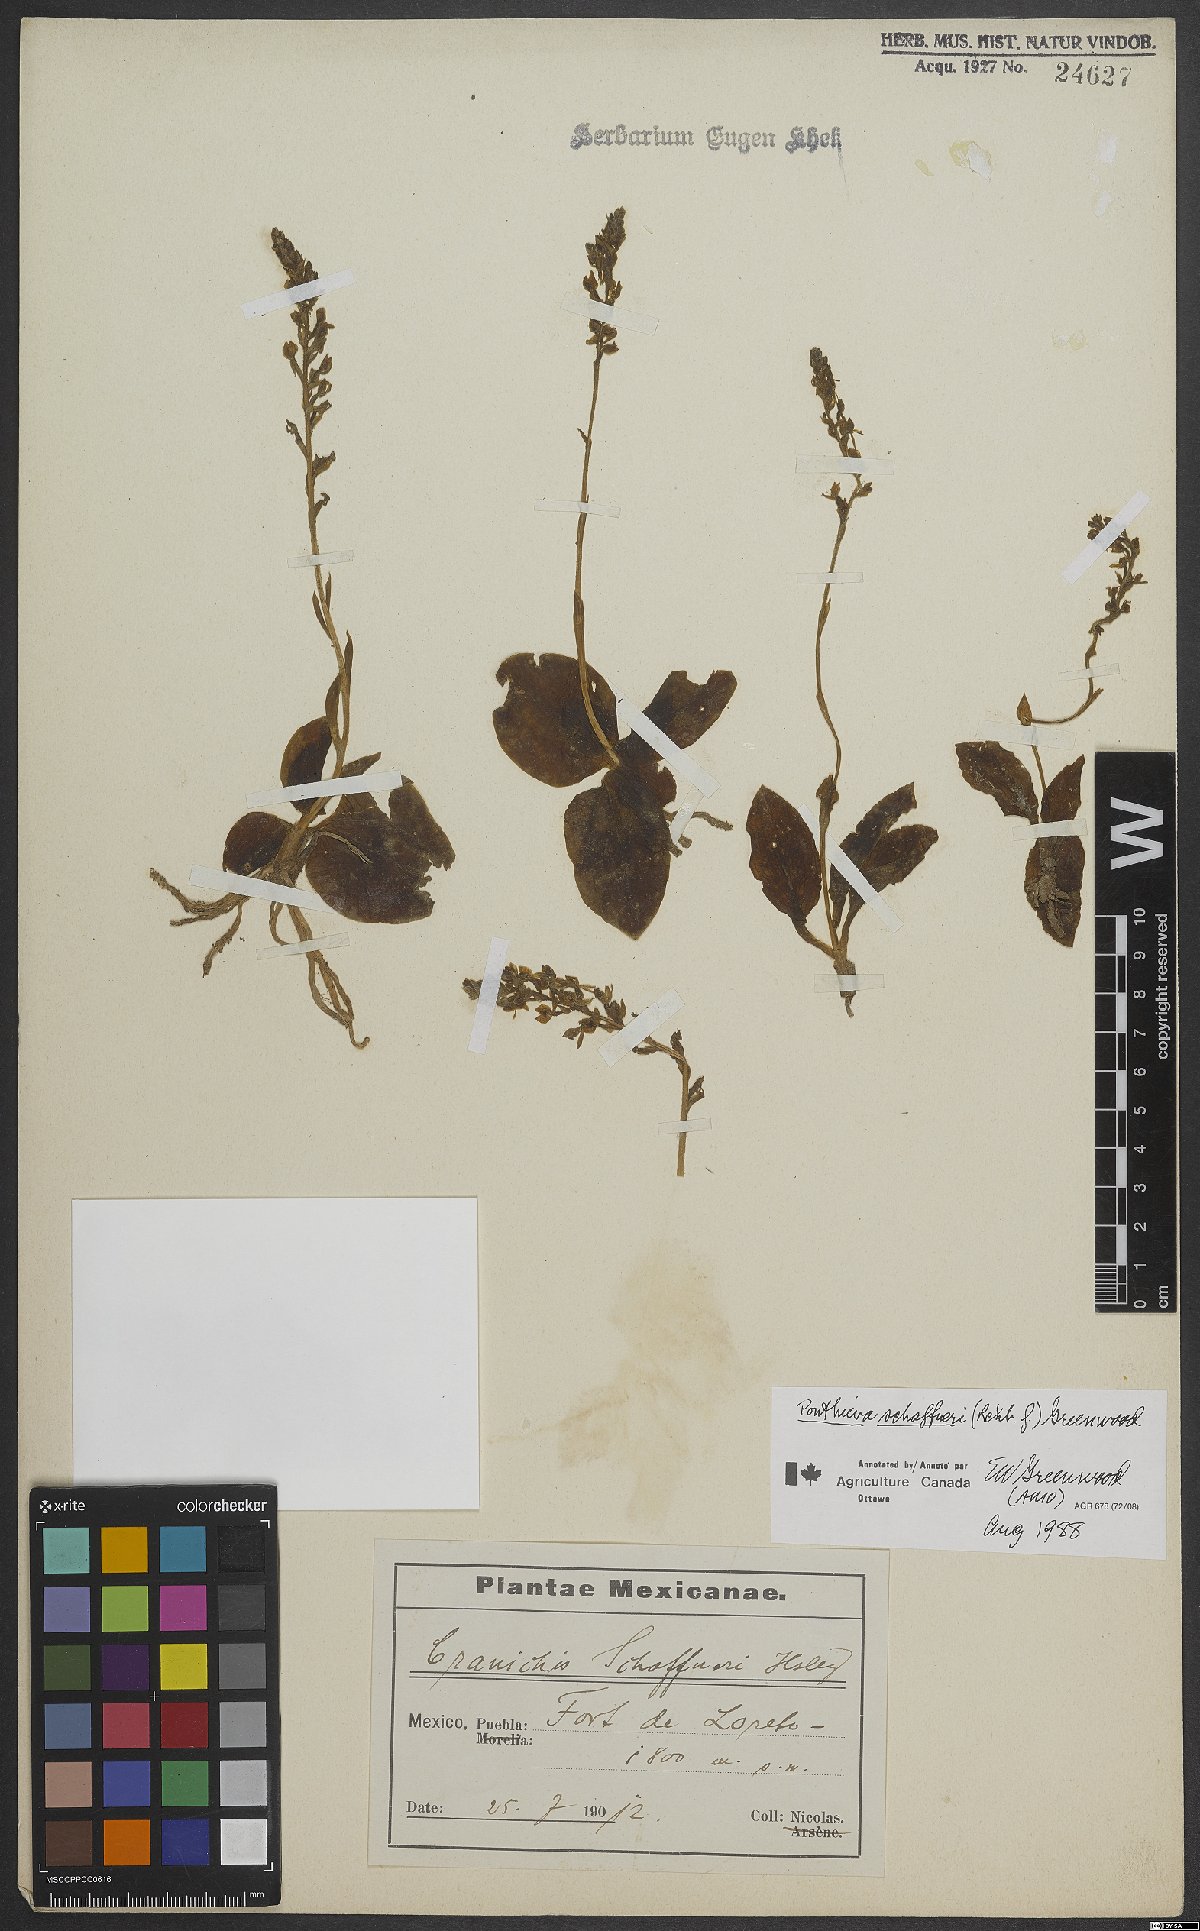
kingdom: Plantae
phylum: Tracheophyta
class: Liliopsida
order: Asparagales
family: Orchidaceae
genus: Ponthieva
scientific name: Ponthieva schaffneri
